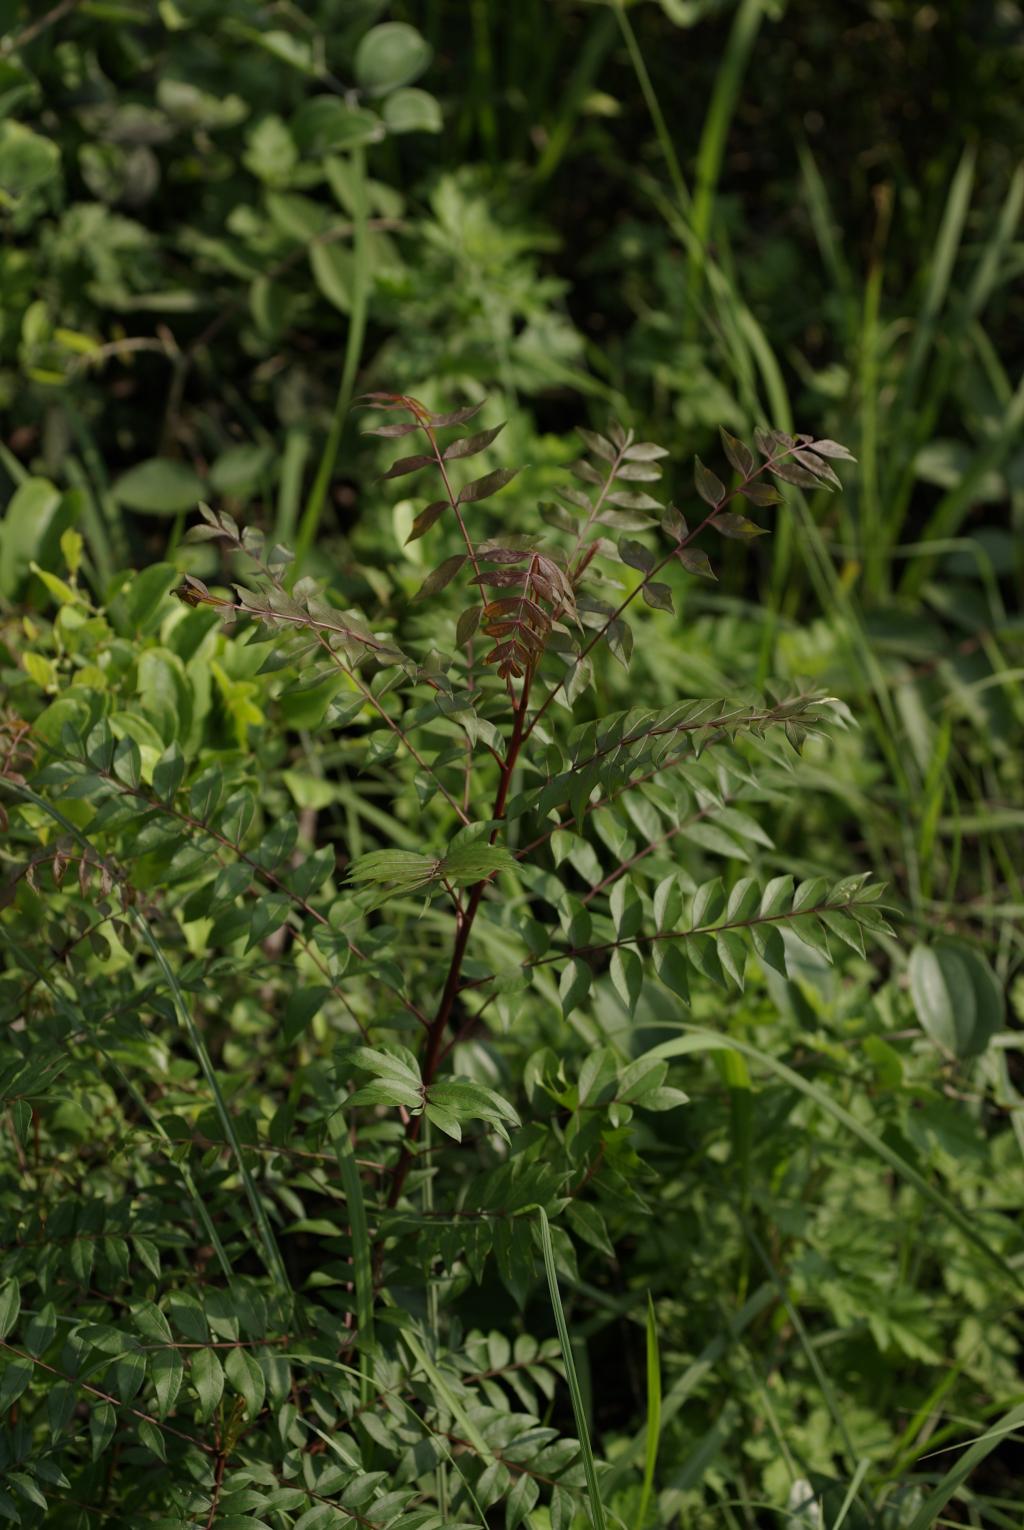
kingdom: Plantae
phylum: Tracheophyta
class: Magnoliopsida
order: Sapindales
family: Anacardiaceae
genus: Pistacia
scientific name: Pistacia chinensis
